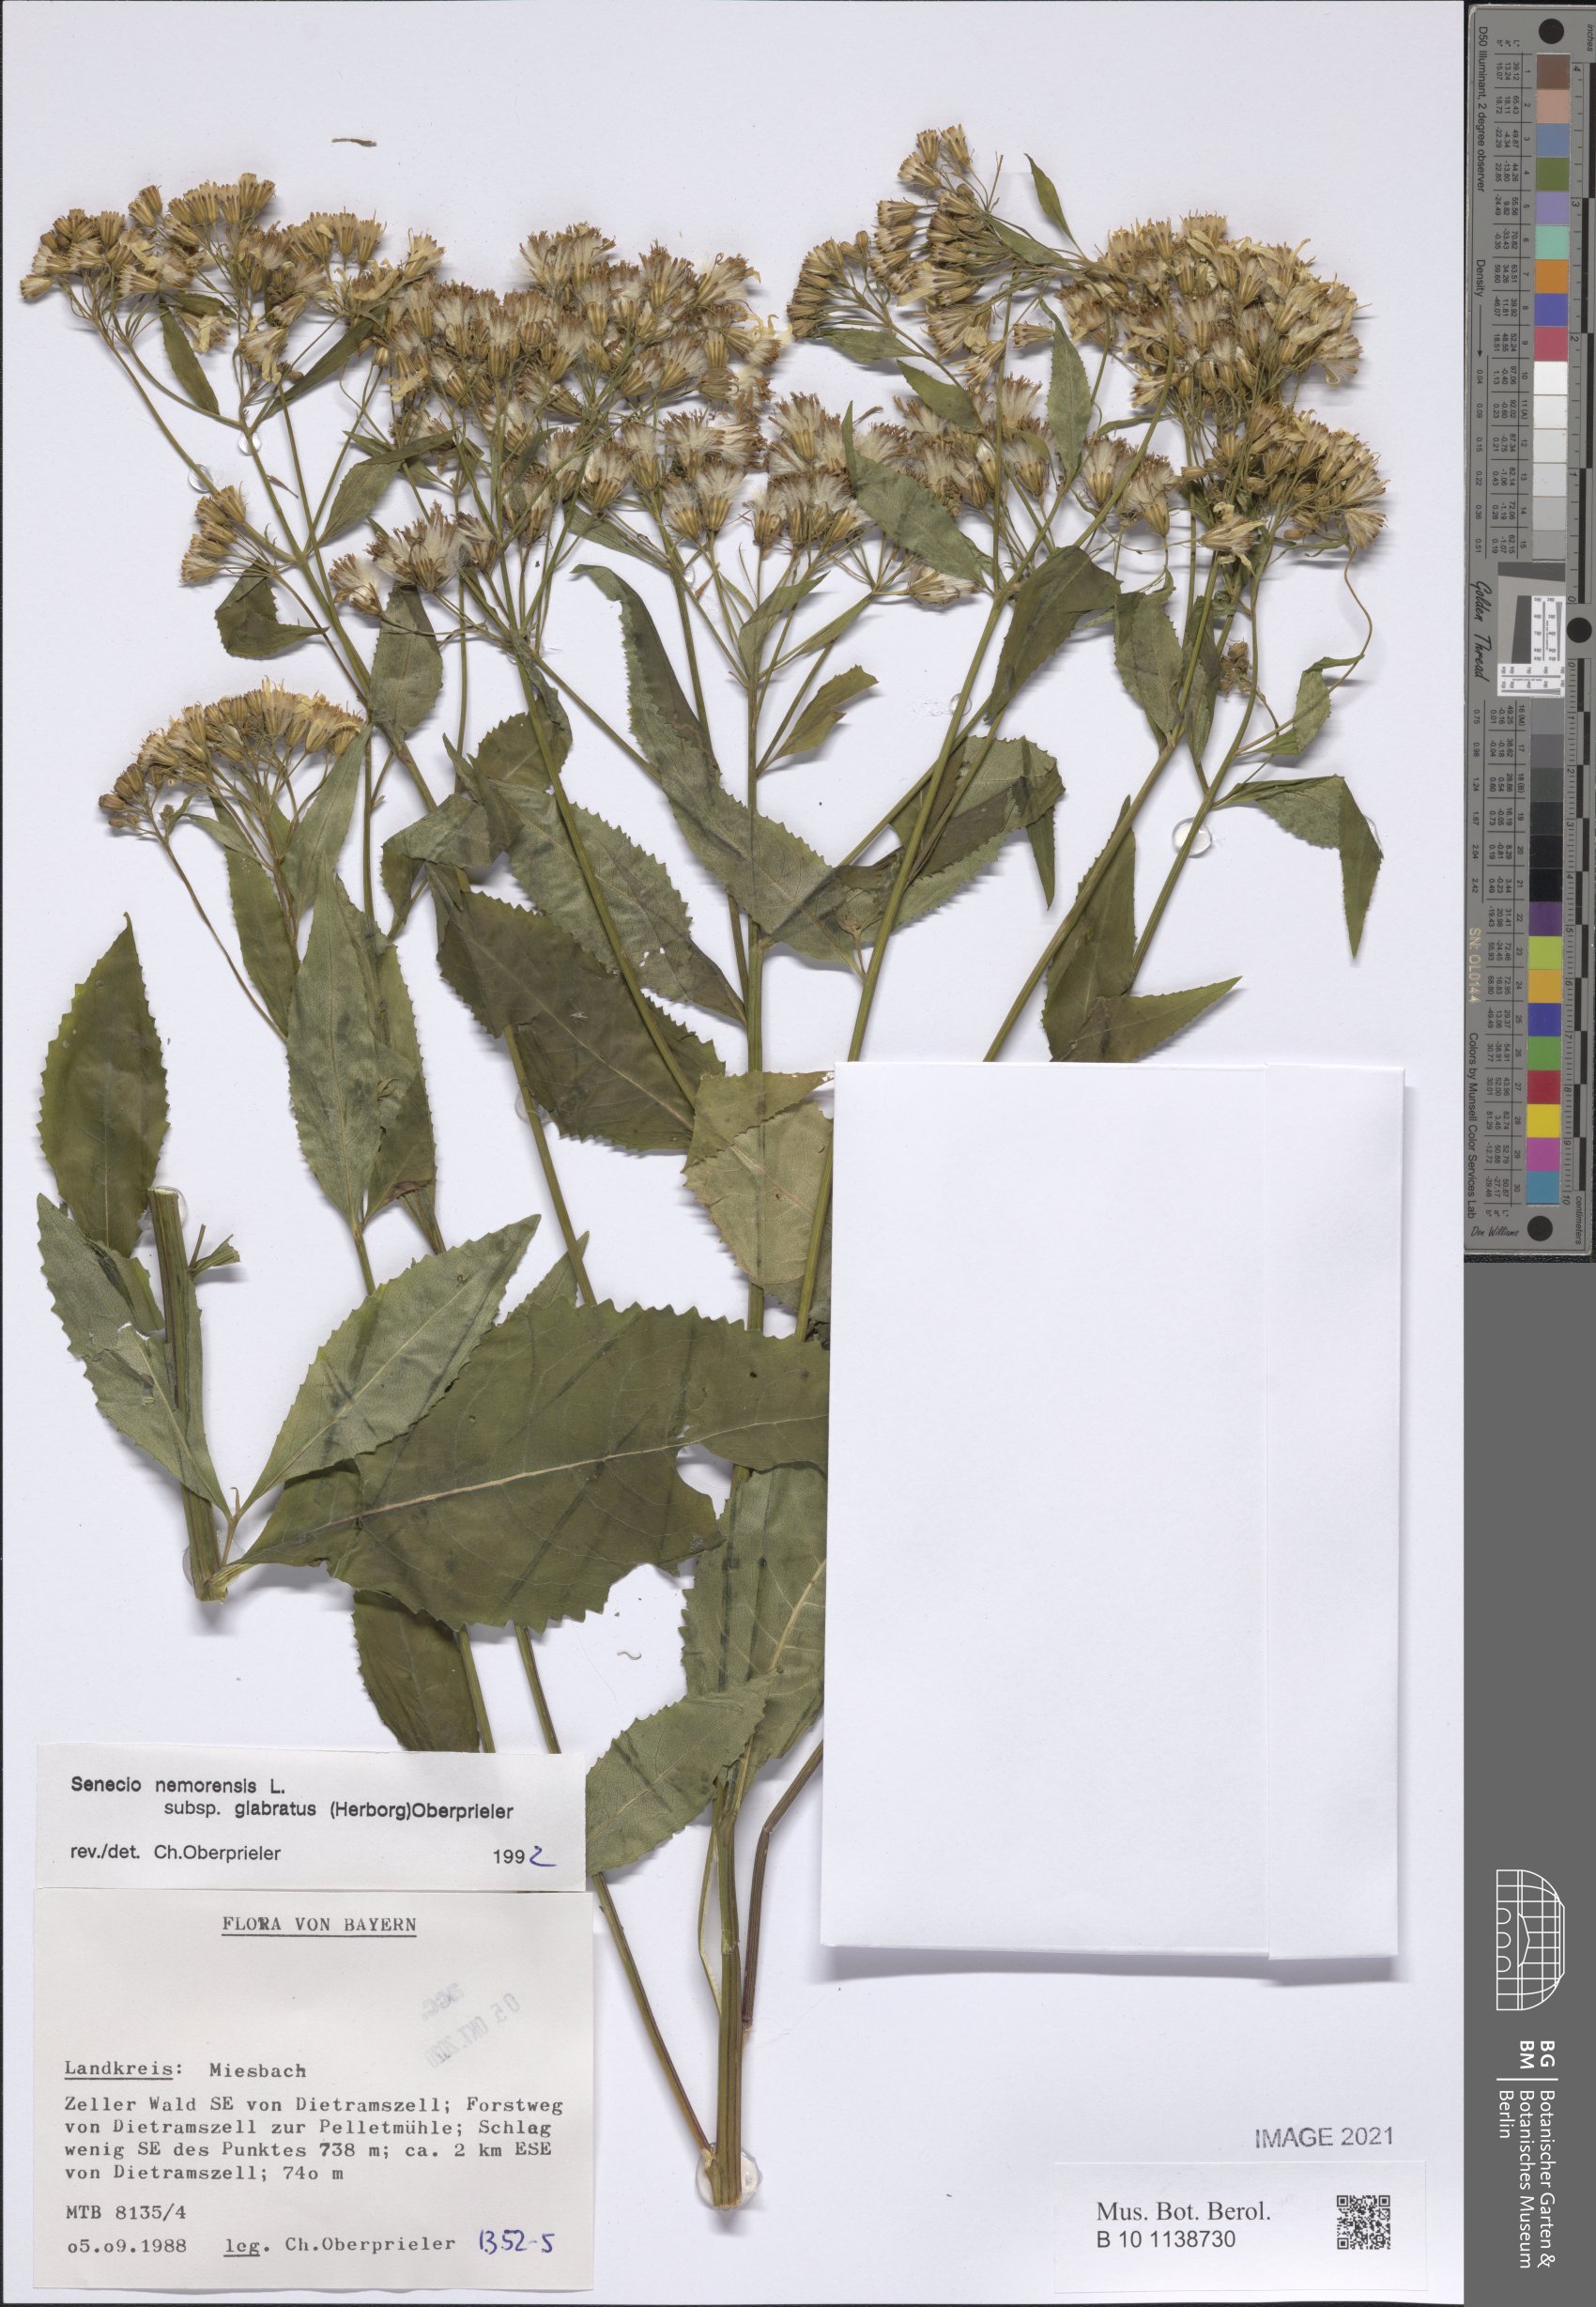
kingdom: Plantae
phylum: Tracheophyta
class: Magnoliopsida
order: Asterales
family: Asteraceae
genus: Senecio
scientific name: Senecio germanicus
